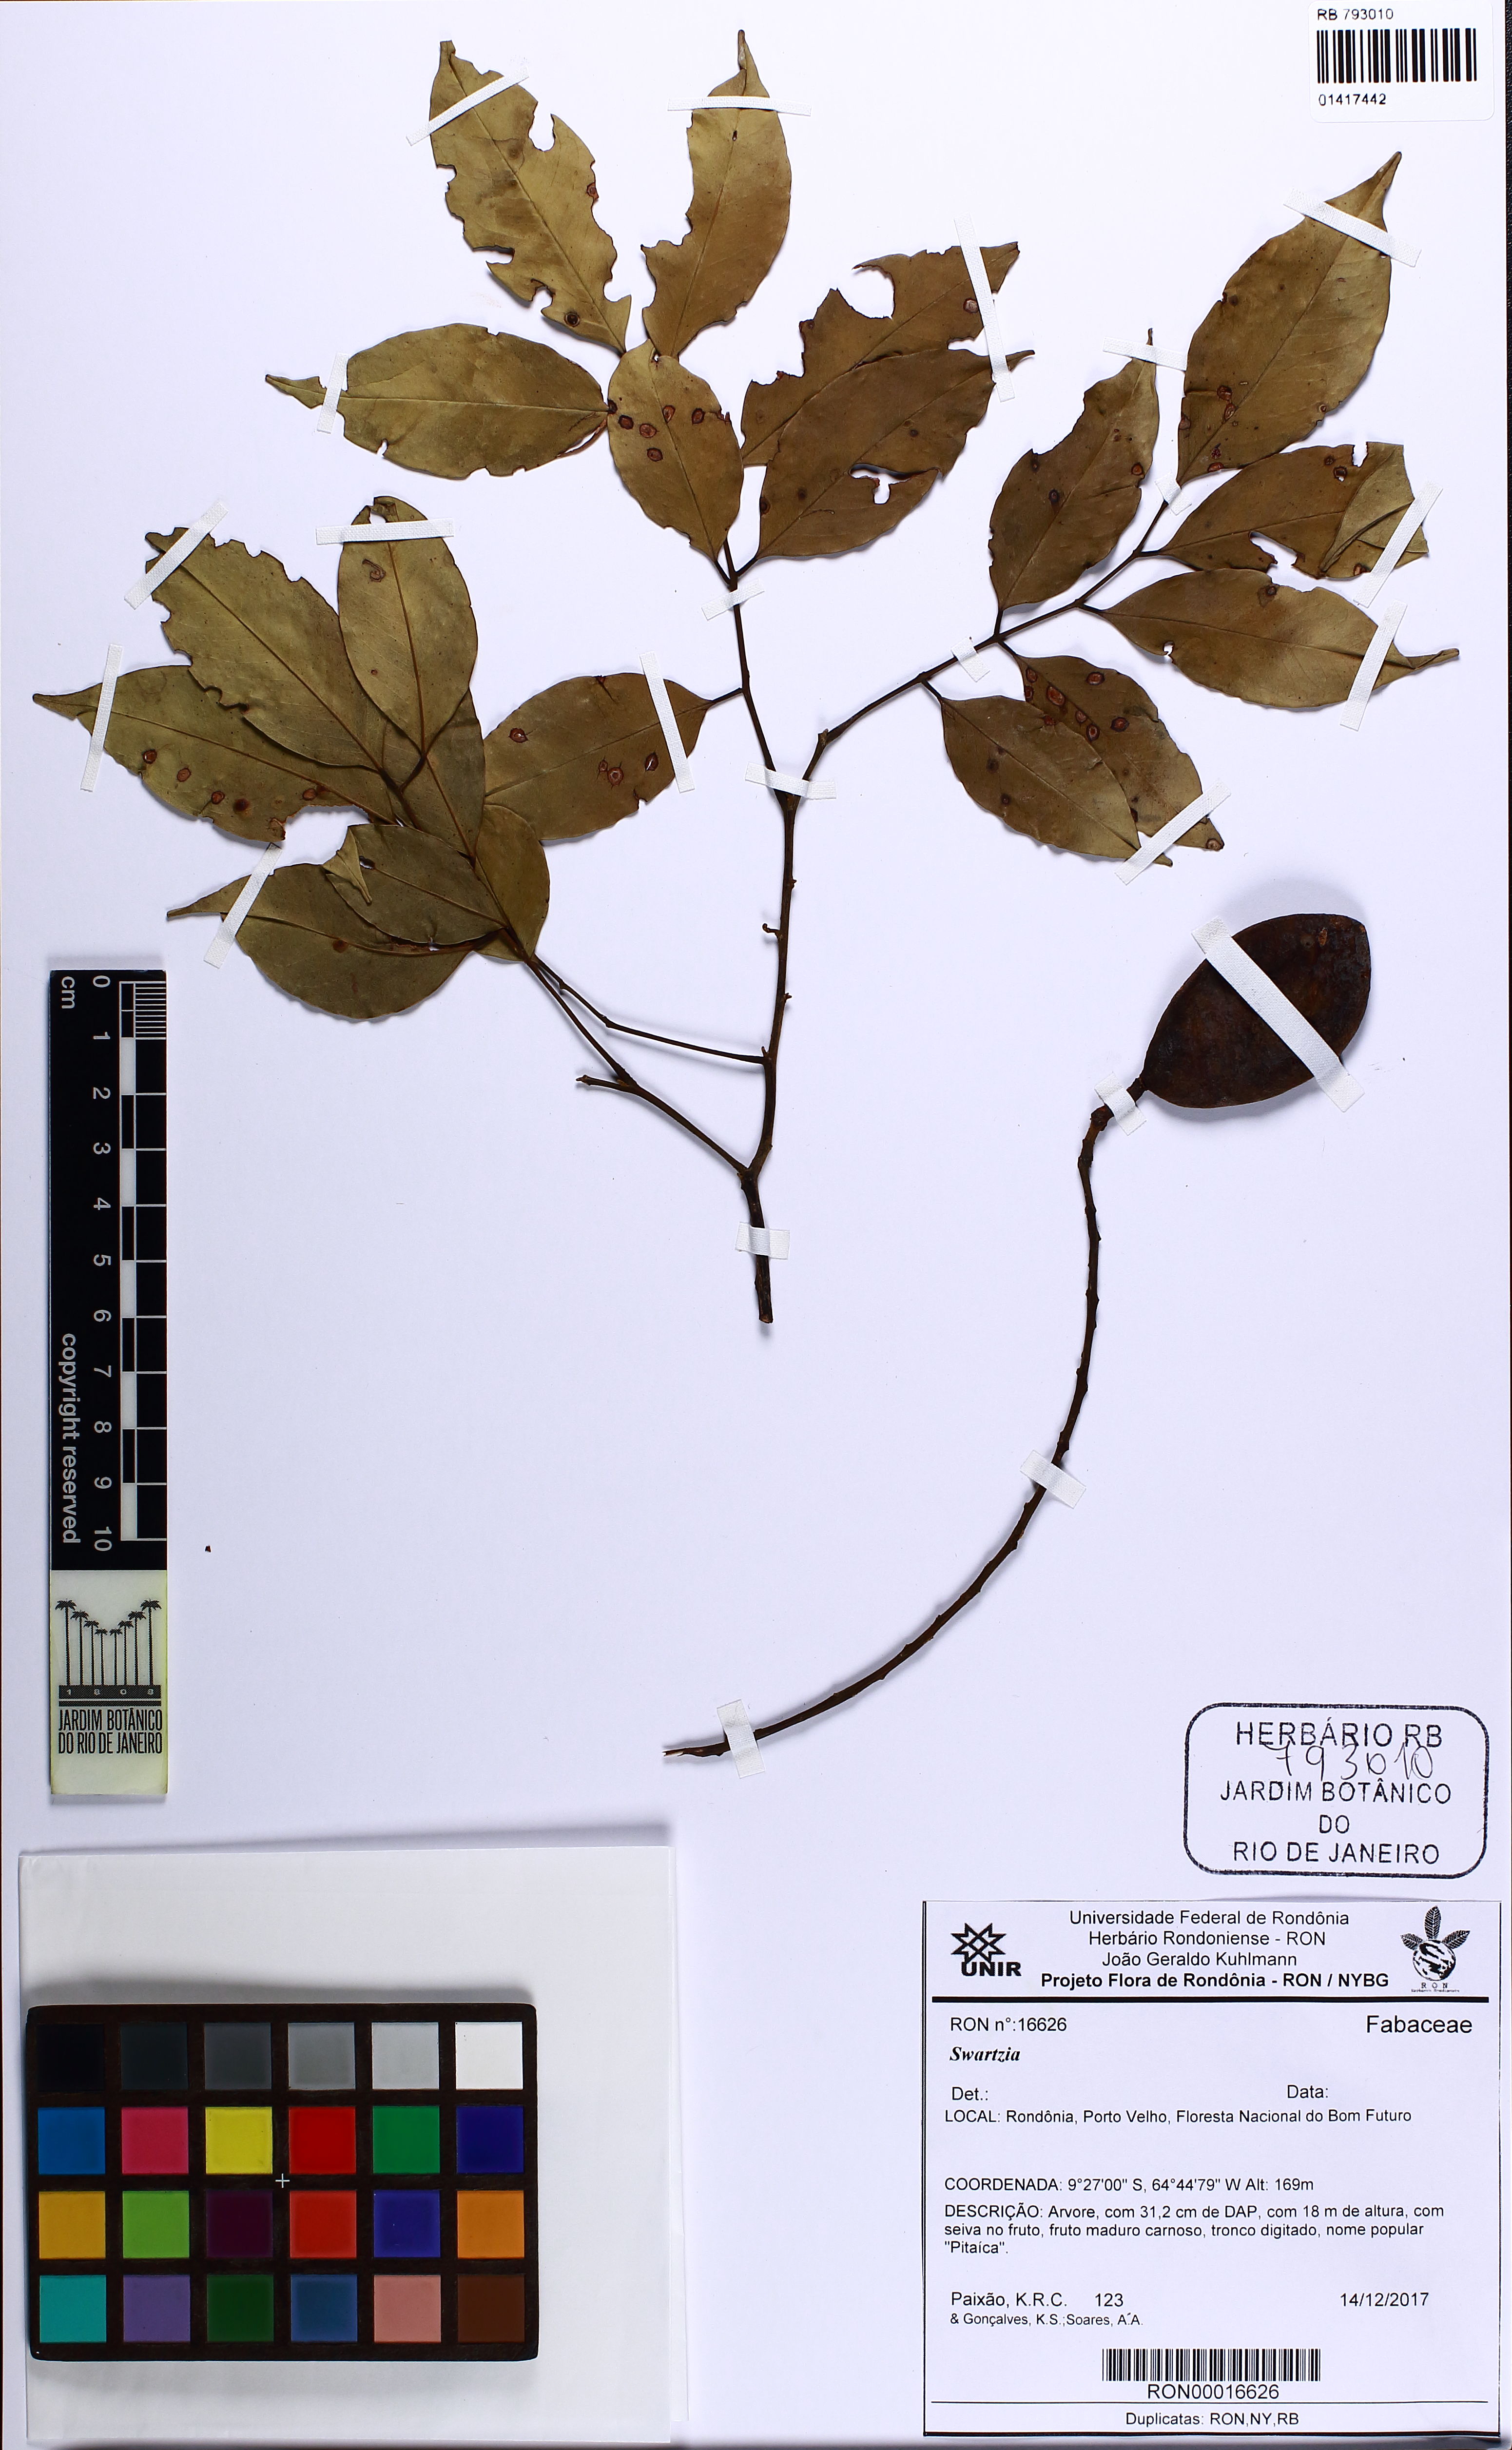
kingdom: Plantae
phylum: Tracheophyta
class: Magnoliopsida
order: Fabales
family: Fabaceae
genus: Swartzia
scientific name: Swartzia
